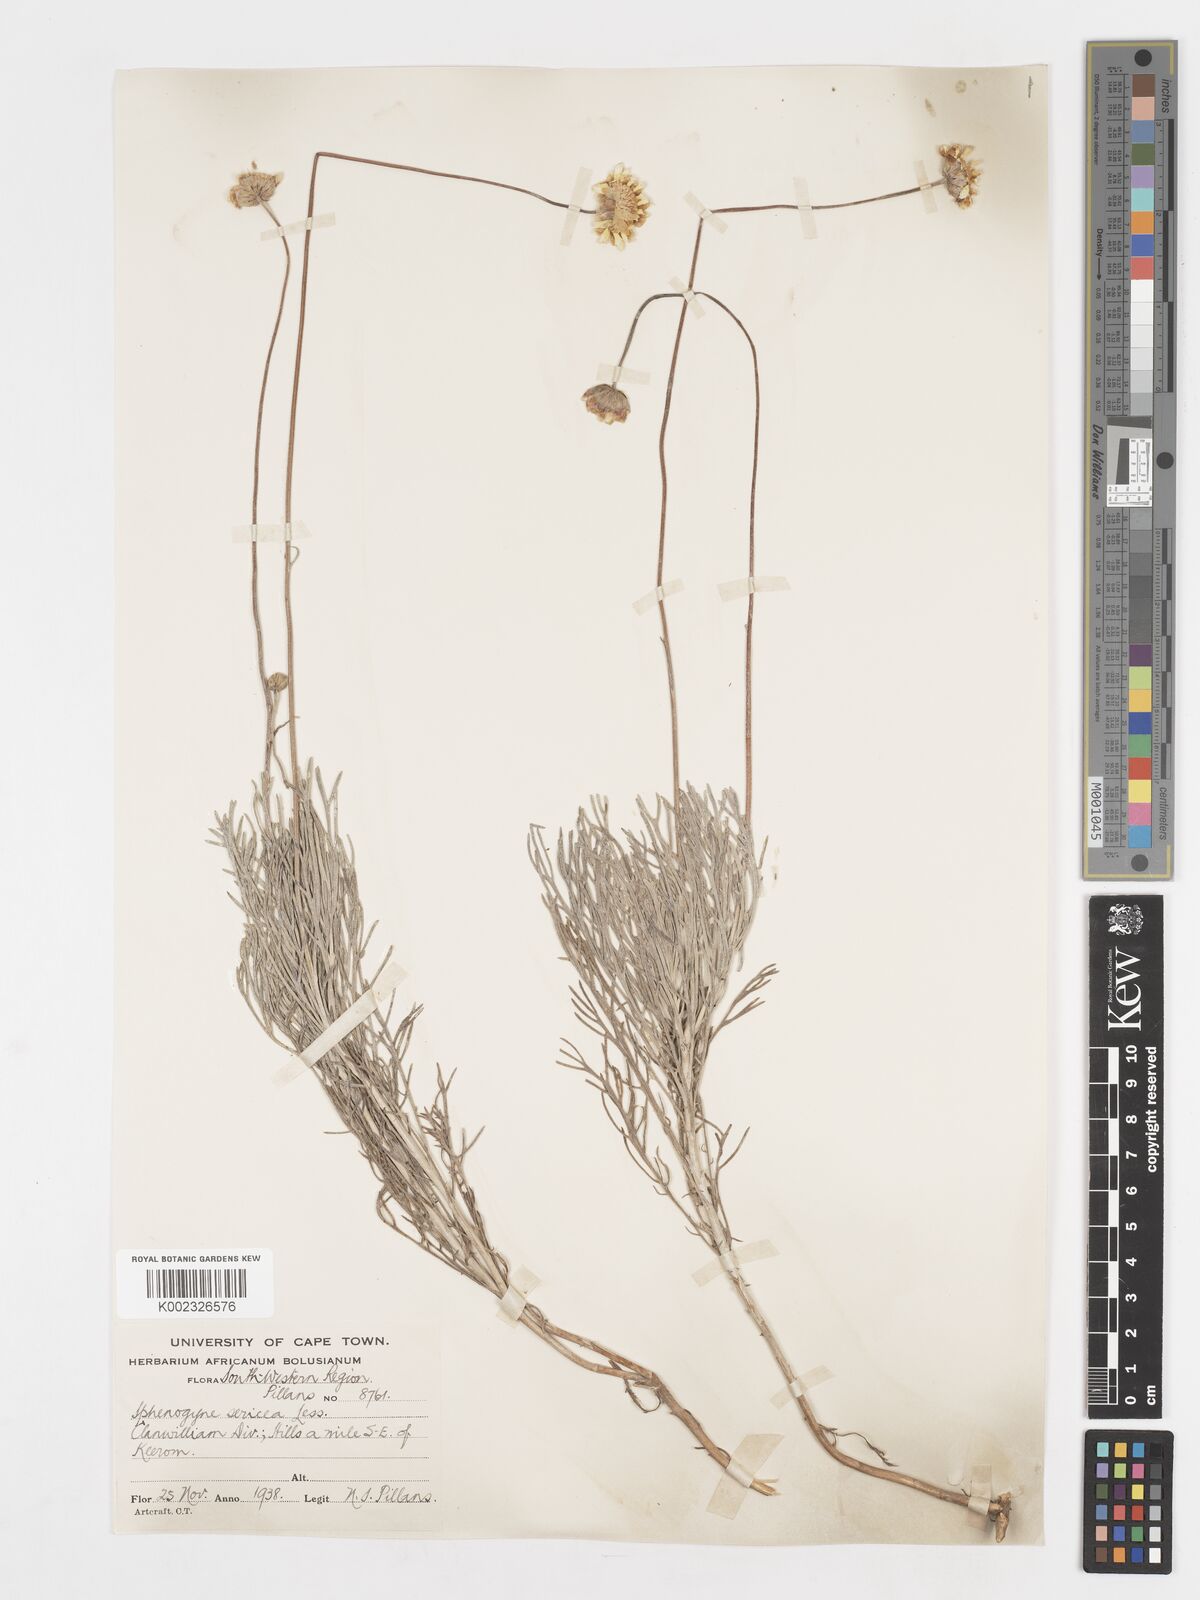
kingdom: Plantae
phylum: Tracheophyta
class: Magnoliopsida
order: Asterales
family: Asteraceae
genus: Ursinia
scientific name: Ursinia sericea
